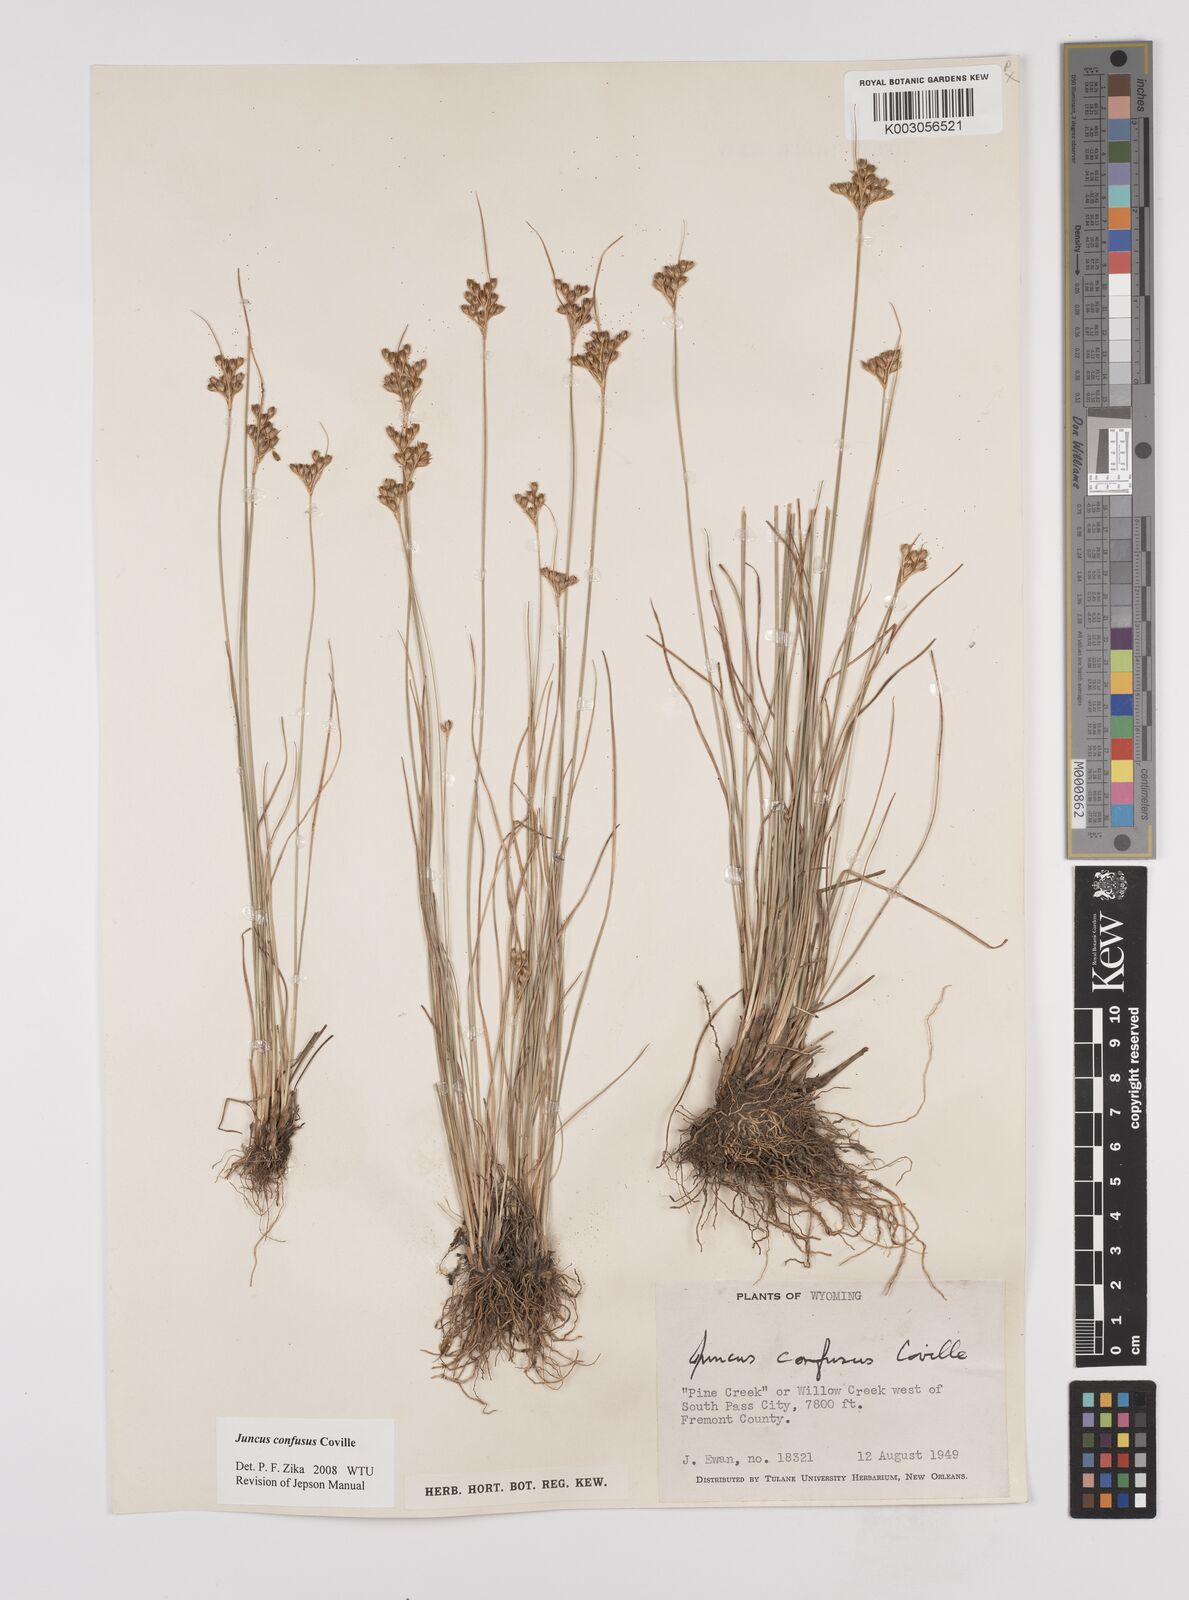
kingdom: Plantae
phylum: Tracheophyta
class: Liliopsida
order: Poales
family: Juncaceae
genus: Juncus
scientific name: Juncus confusus
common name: Colorado rush
